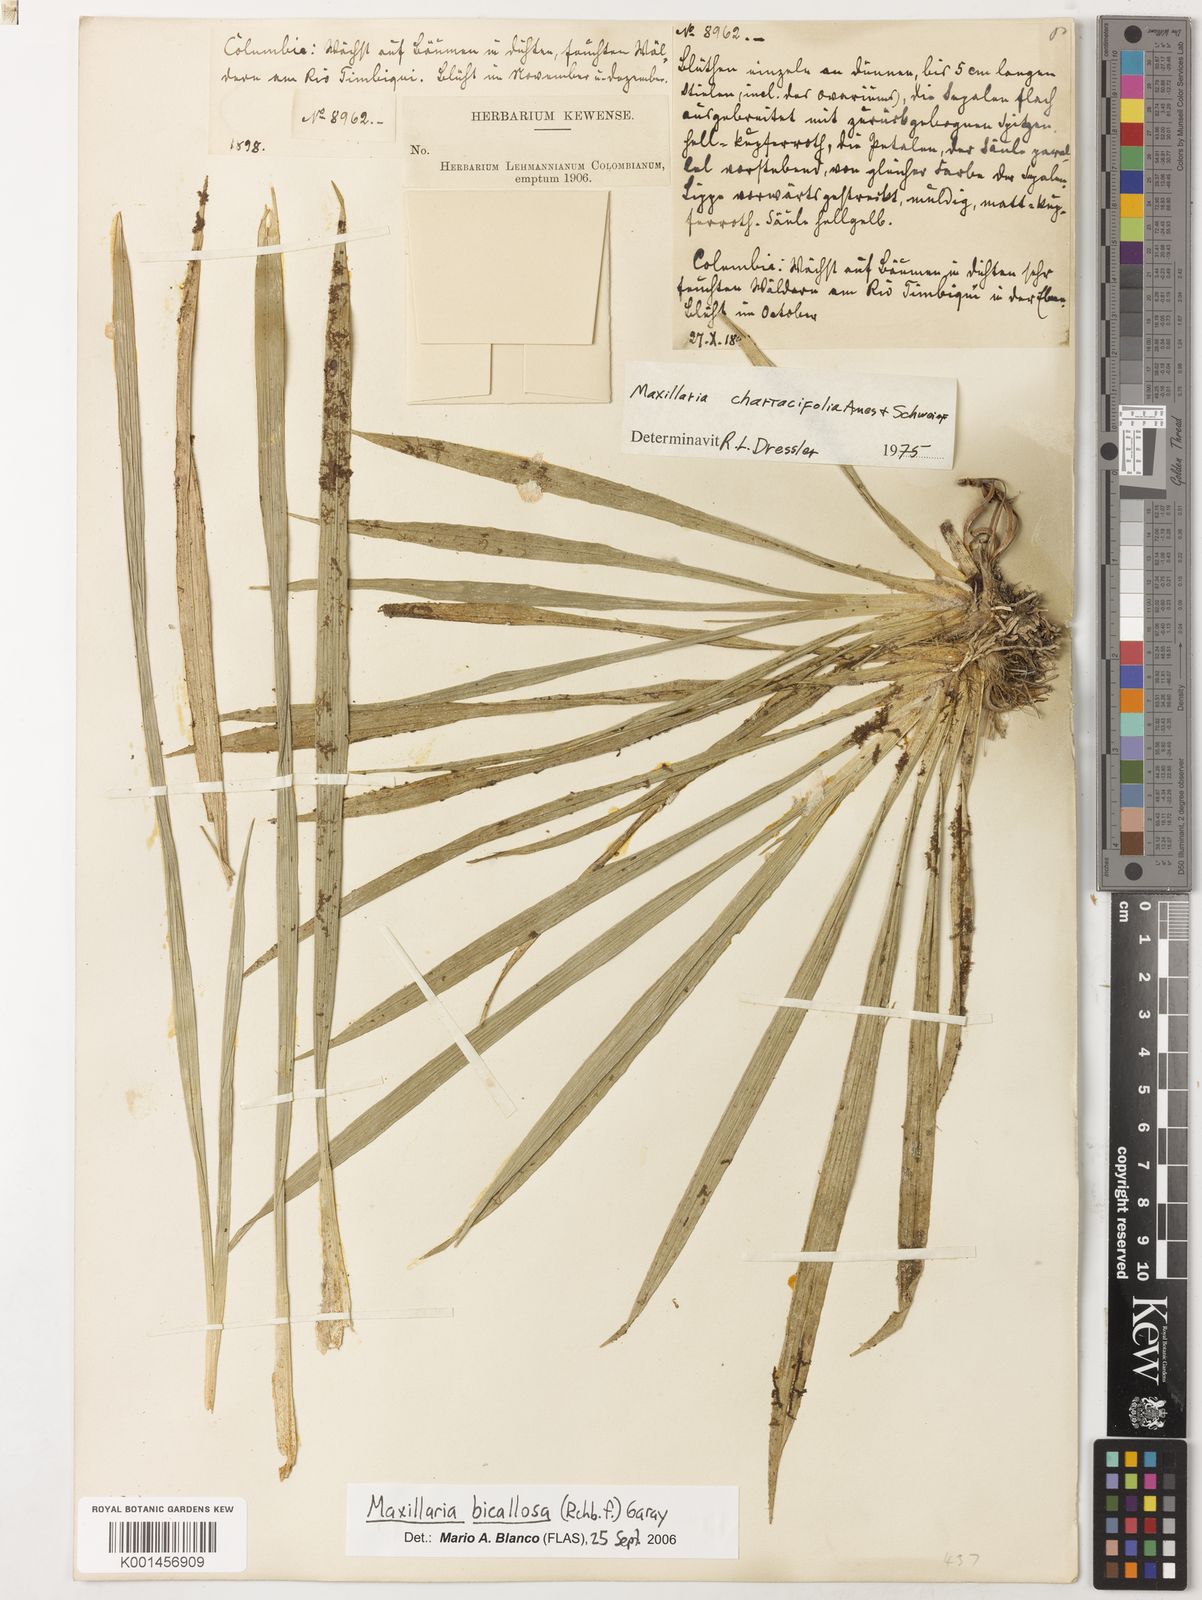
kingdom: Plantae
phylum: Tracheophyta
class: Liliopsida
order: Asparagales
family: Orchidaceae
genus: Maxillaria
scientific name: Maxillaria bicallosa
